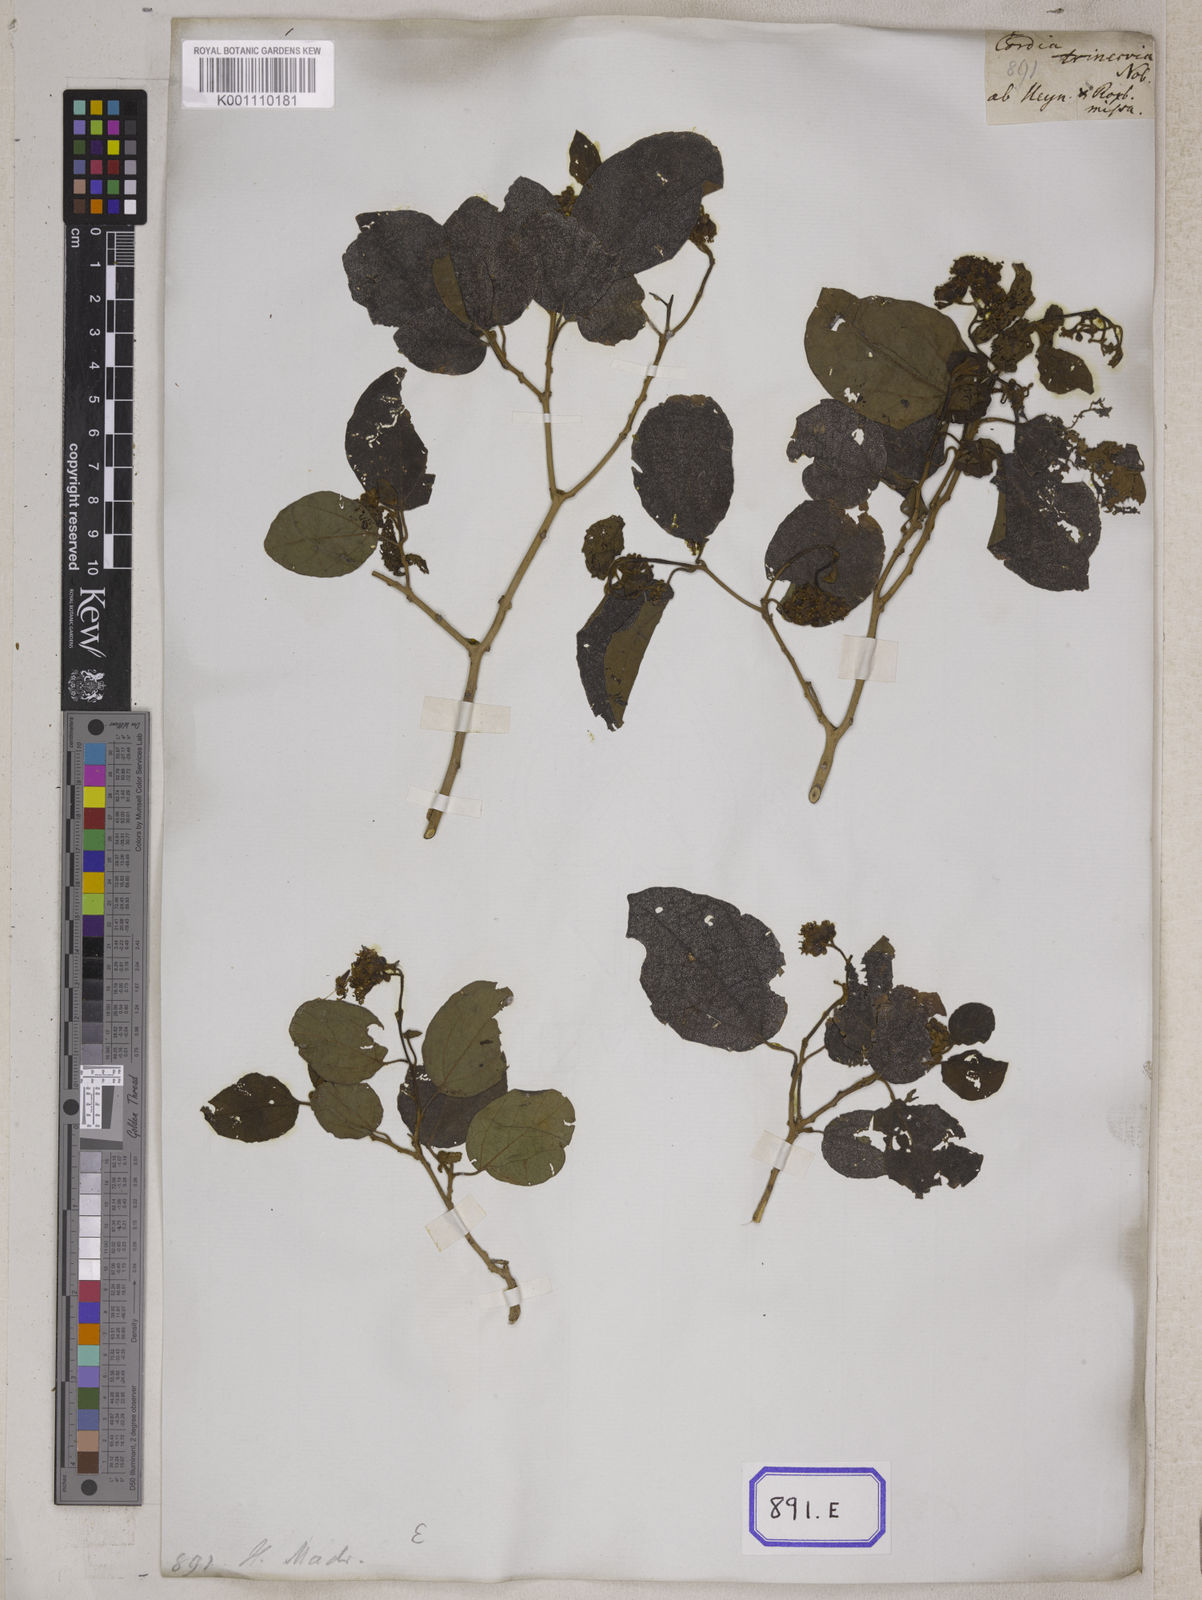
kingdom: Plantae
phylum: Tracheophyta
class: Magnoliopsida
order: Boraginales
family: Cordiaceae
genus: Cordia
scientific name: Cordia monoica
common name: Snot berry
